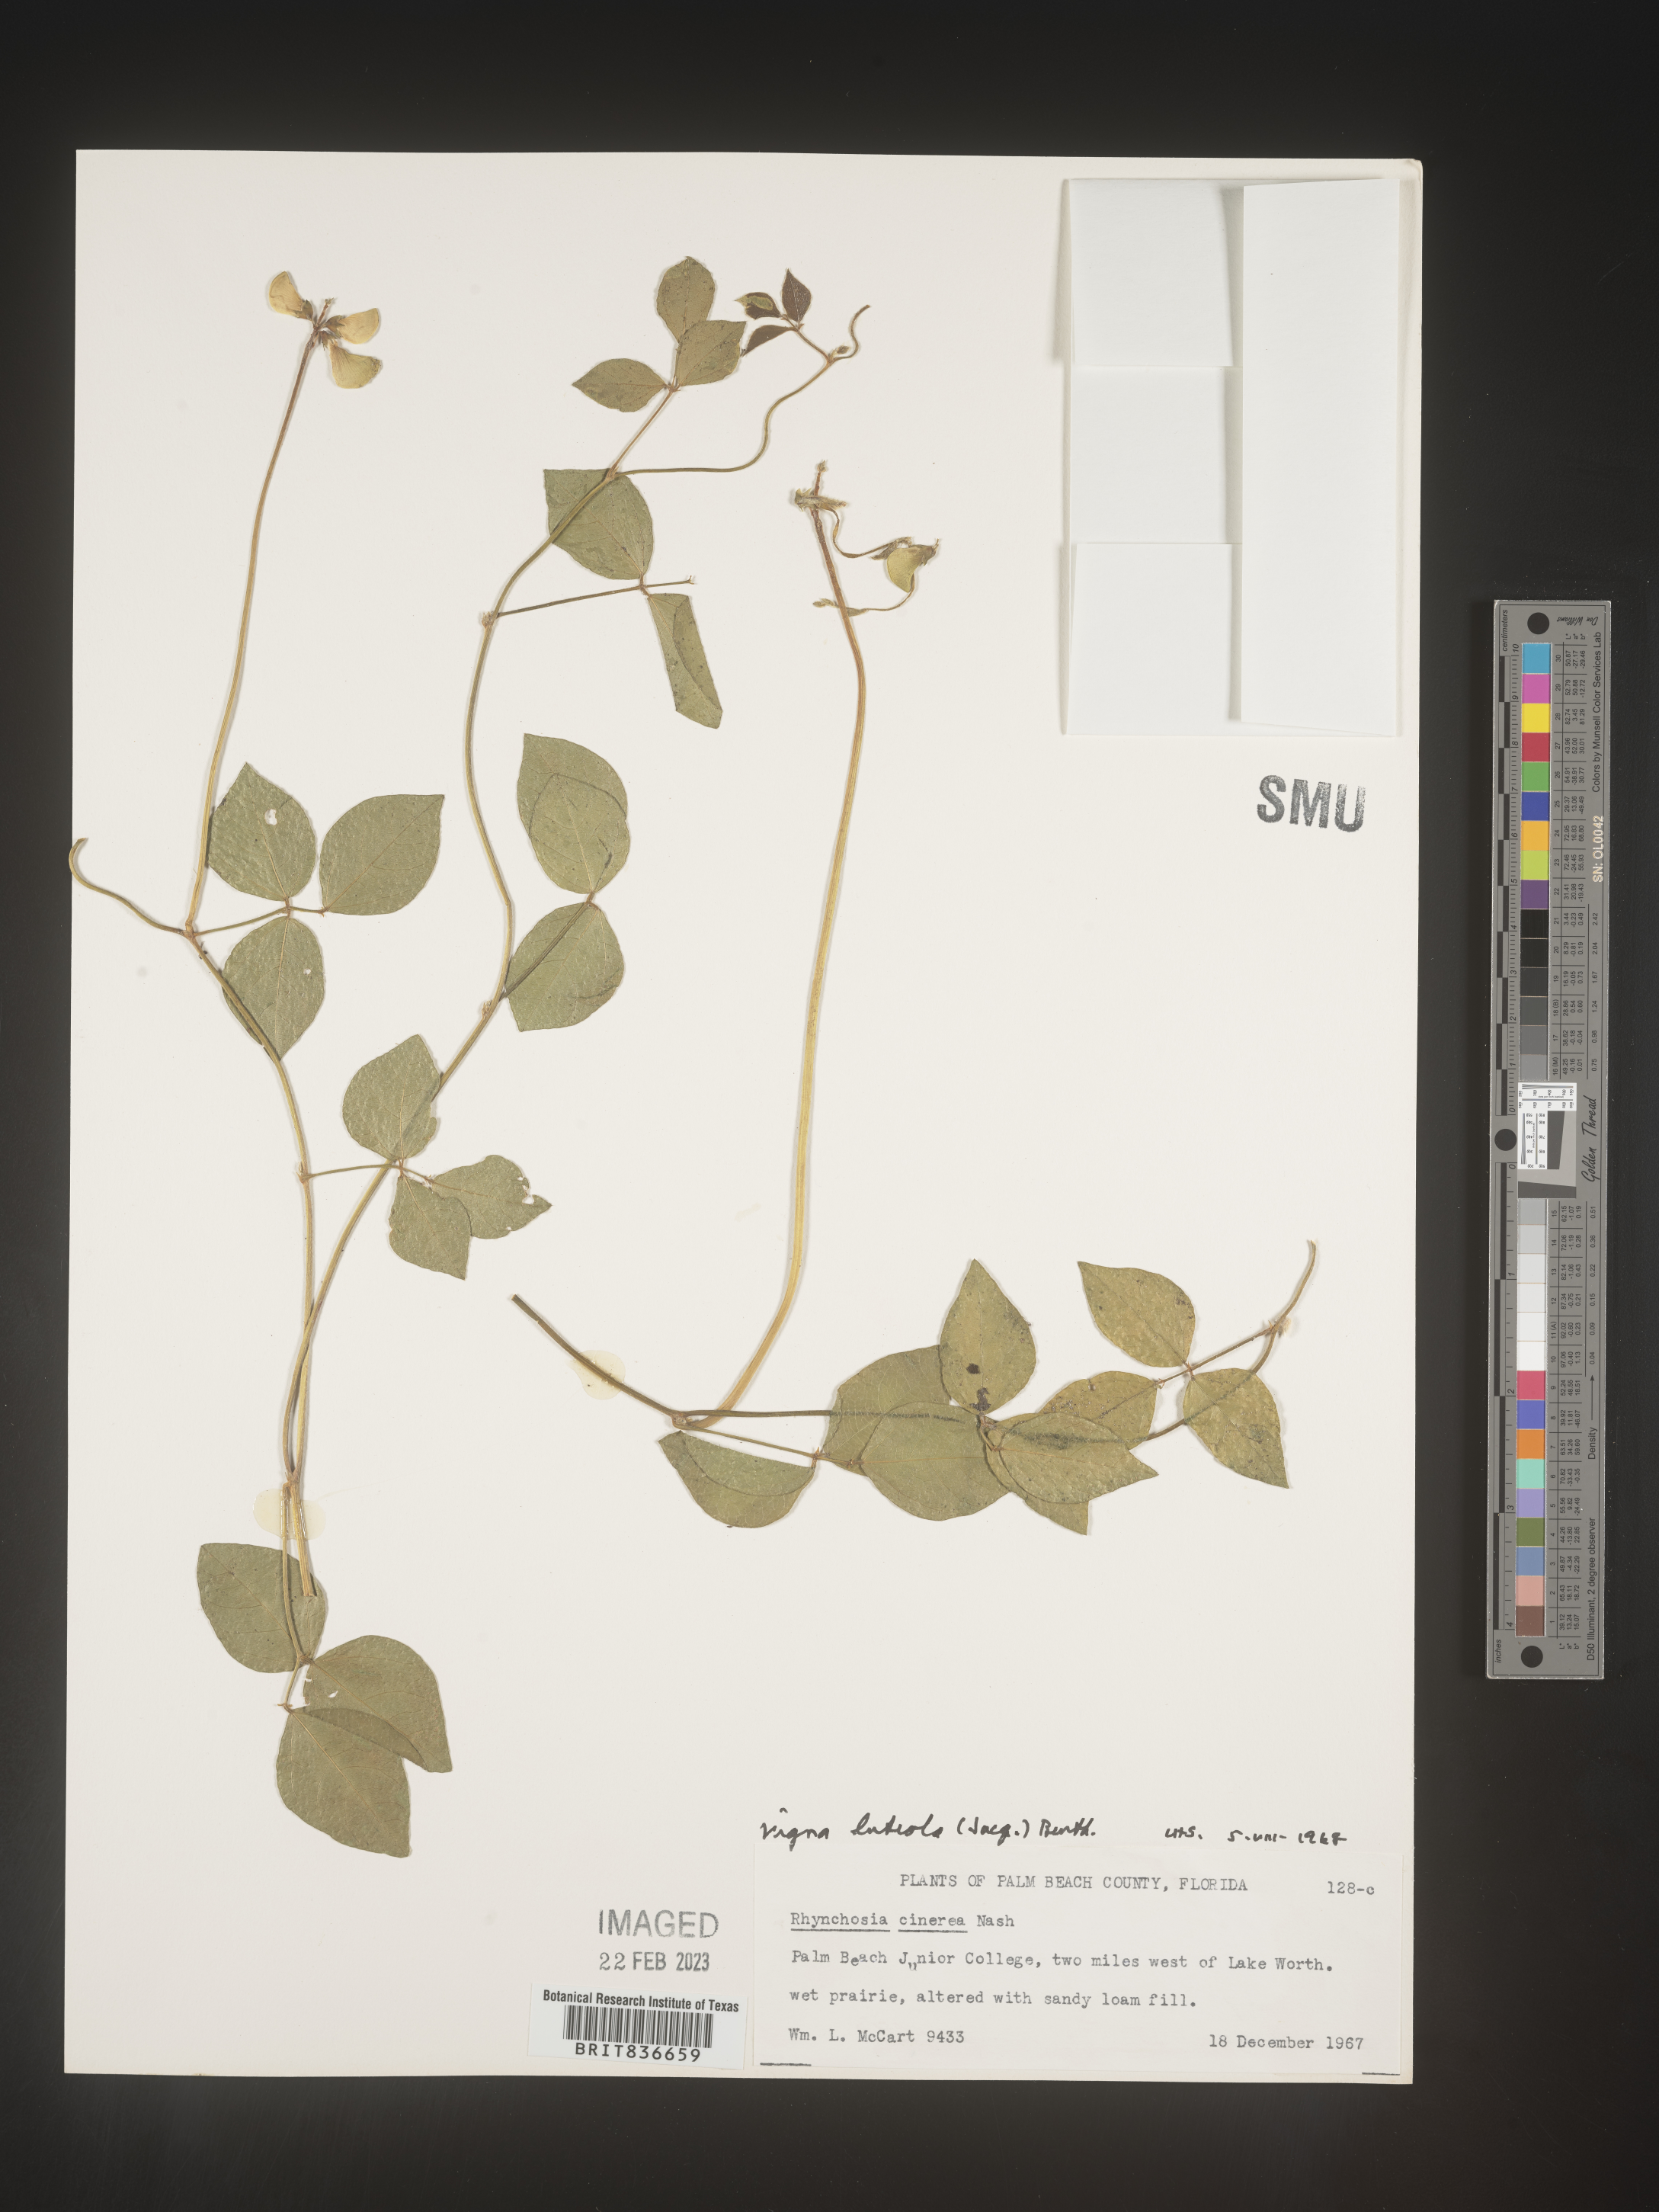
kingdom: Plantae
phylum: Tracheophyta
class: Magnoliopsida
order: Fabales
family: Fabaceae
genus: Vigna
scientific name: Vigna luteola
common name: Hairypod cowpea
